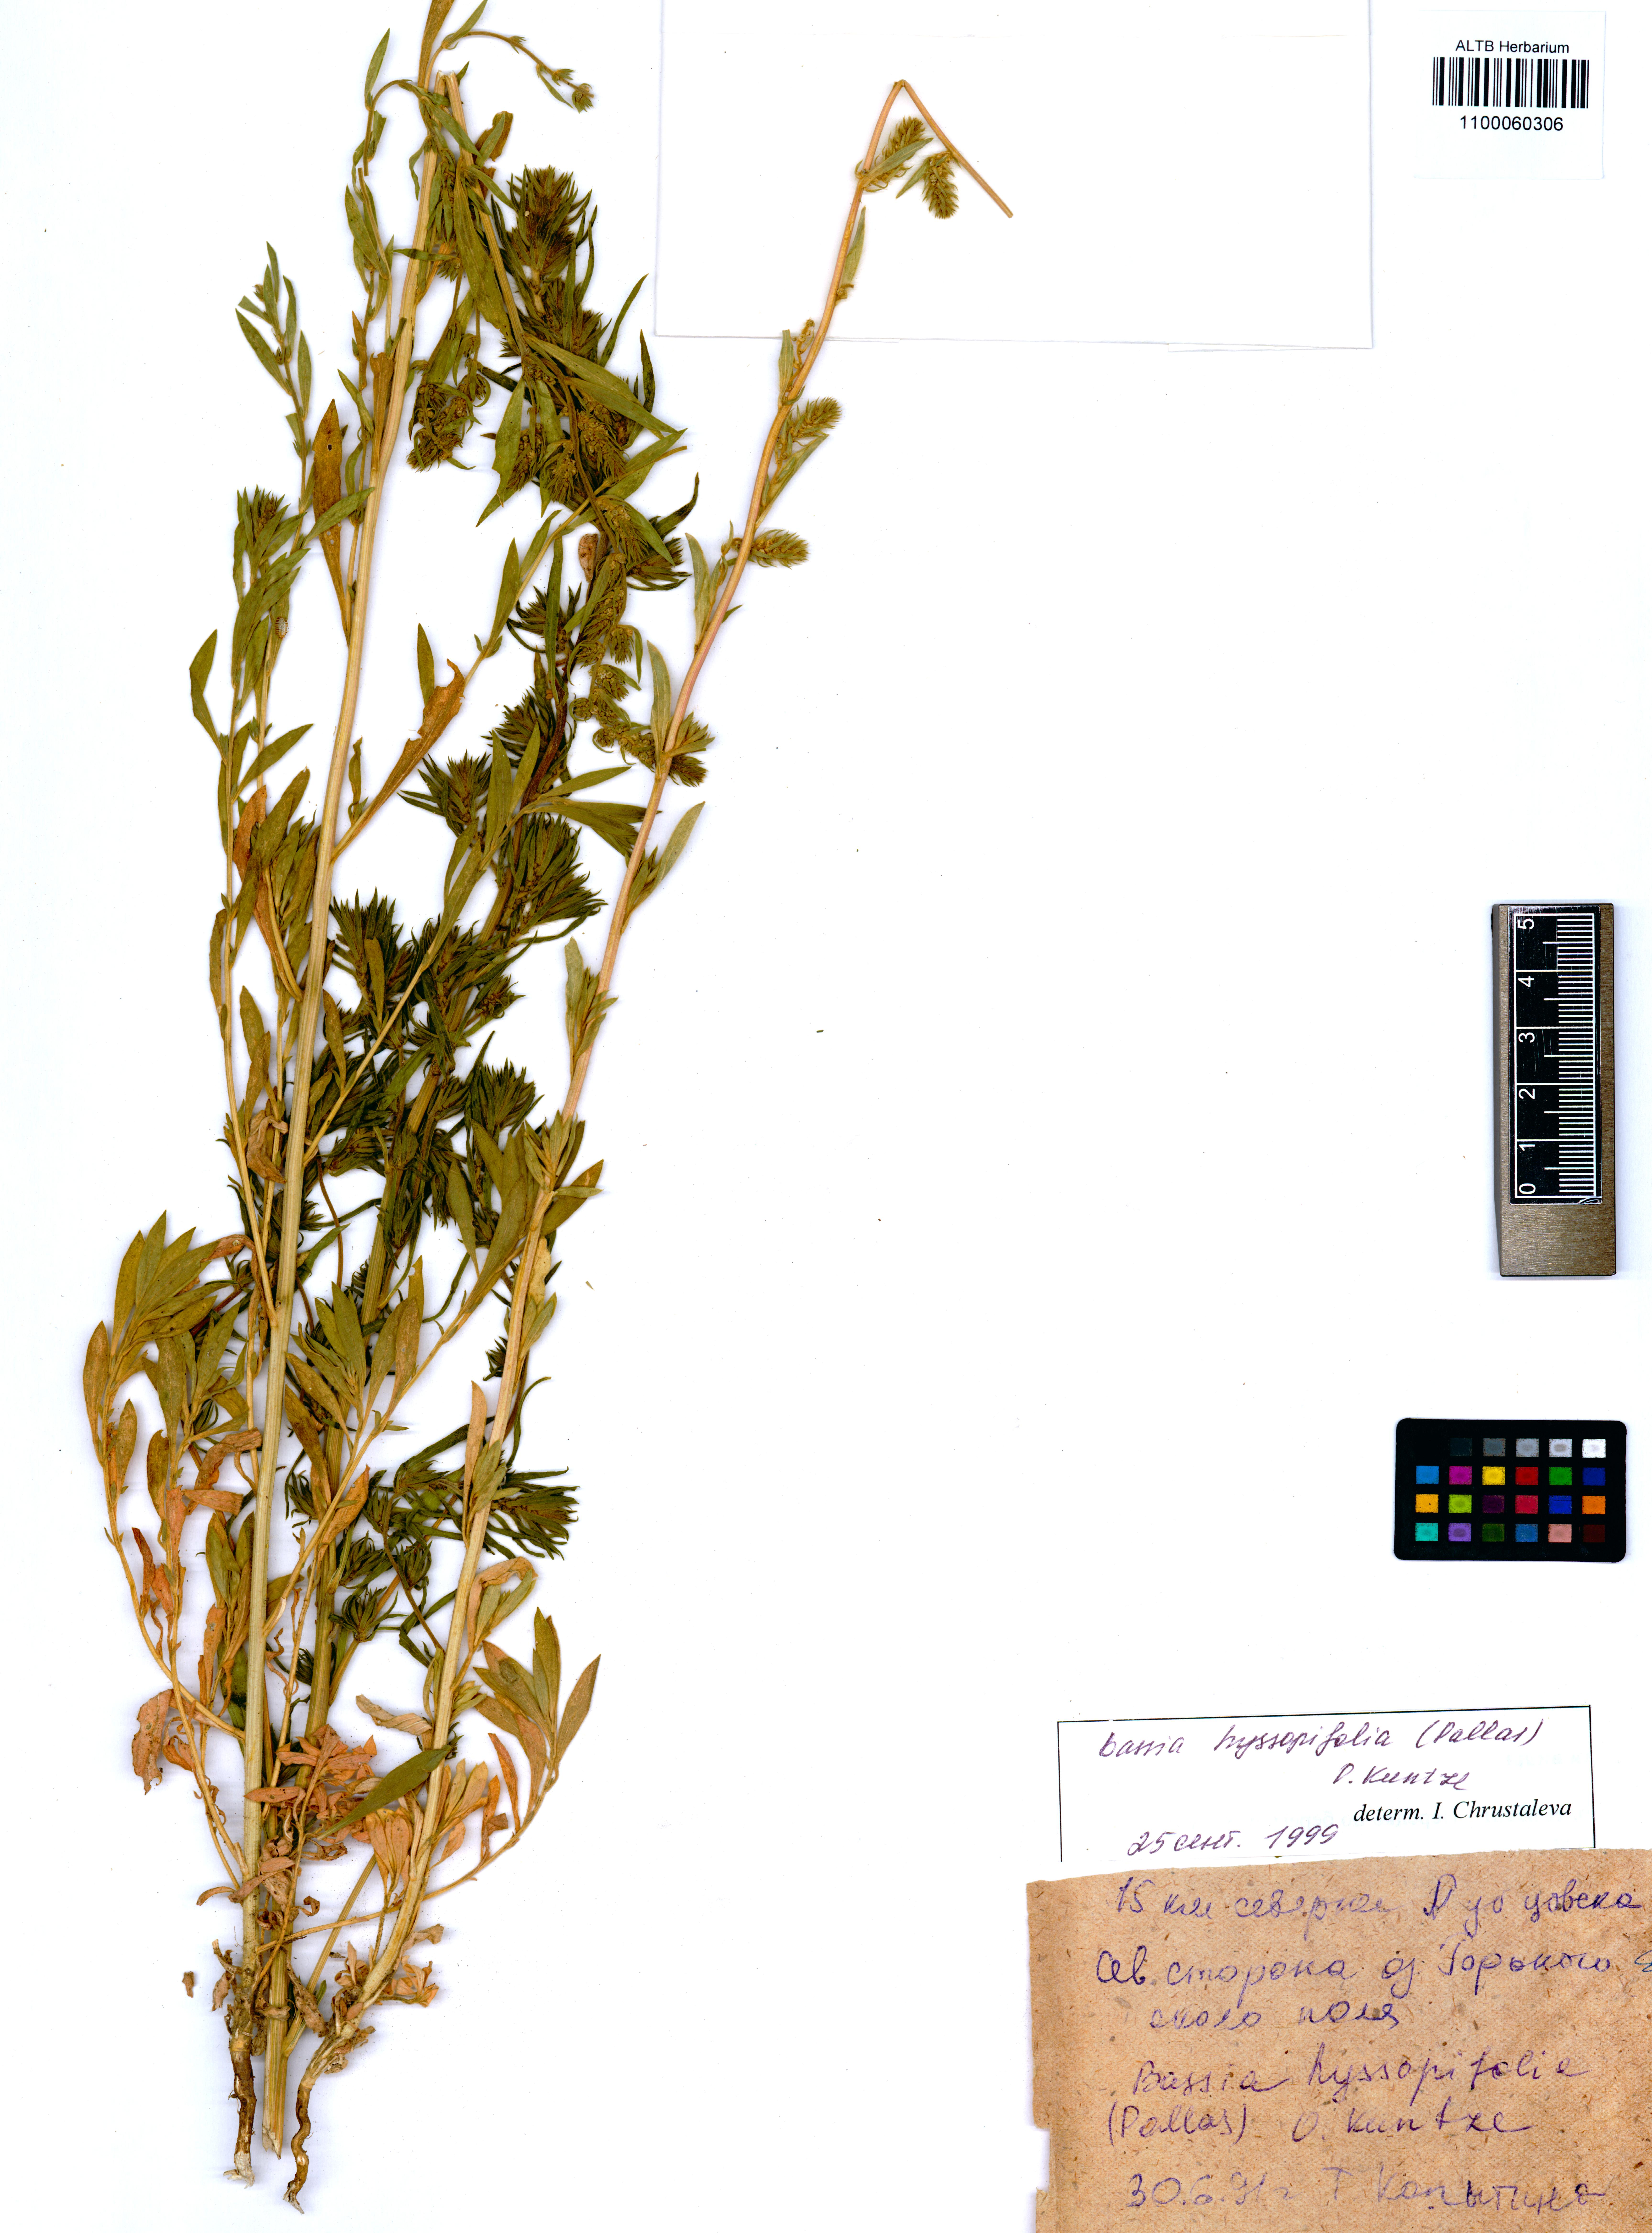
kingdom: Plantae
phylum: Tracheophyta
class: Magnoliopsida
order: Caryophyllales
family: Amaranthaceae
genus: Bassia
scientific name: Bassia hyssopifolia
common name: Fivehorn smotherweed
